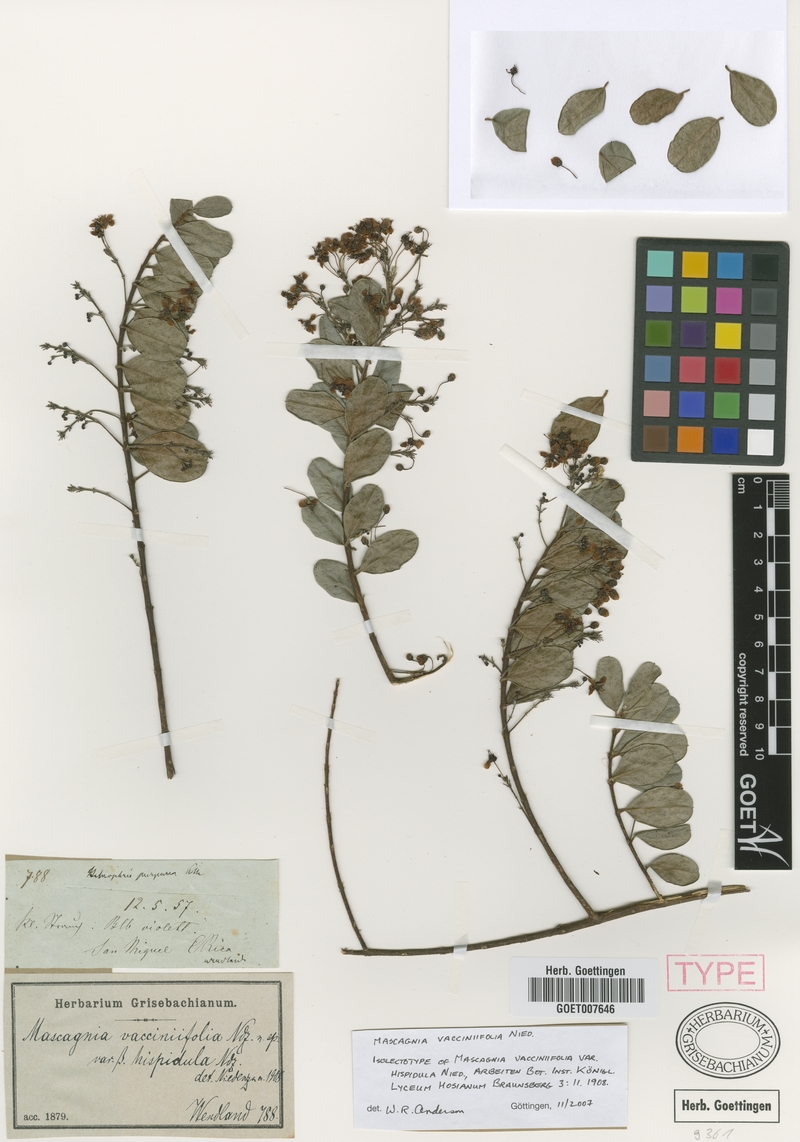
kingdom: Plantae
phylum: Tracheophyta
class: Magnoliopsida
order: Malpighiales
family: Malpighiaceae
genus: Mascagnia
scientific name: Mascagnia vacciniifolia
